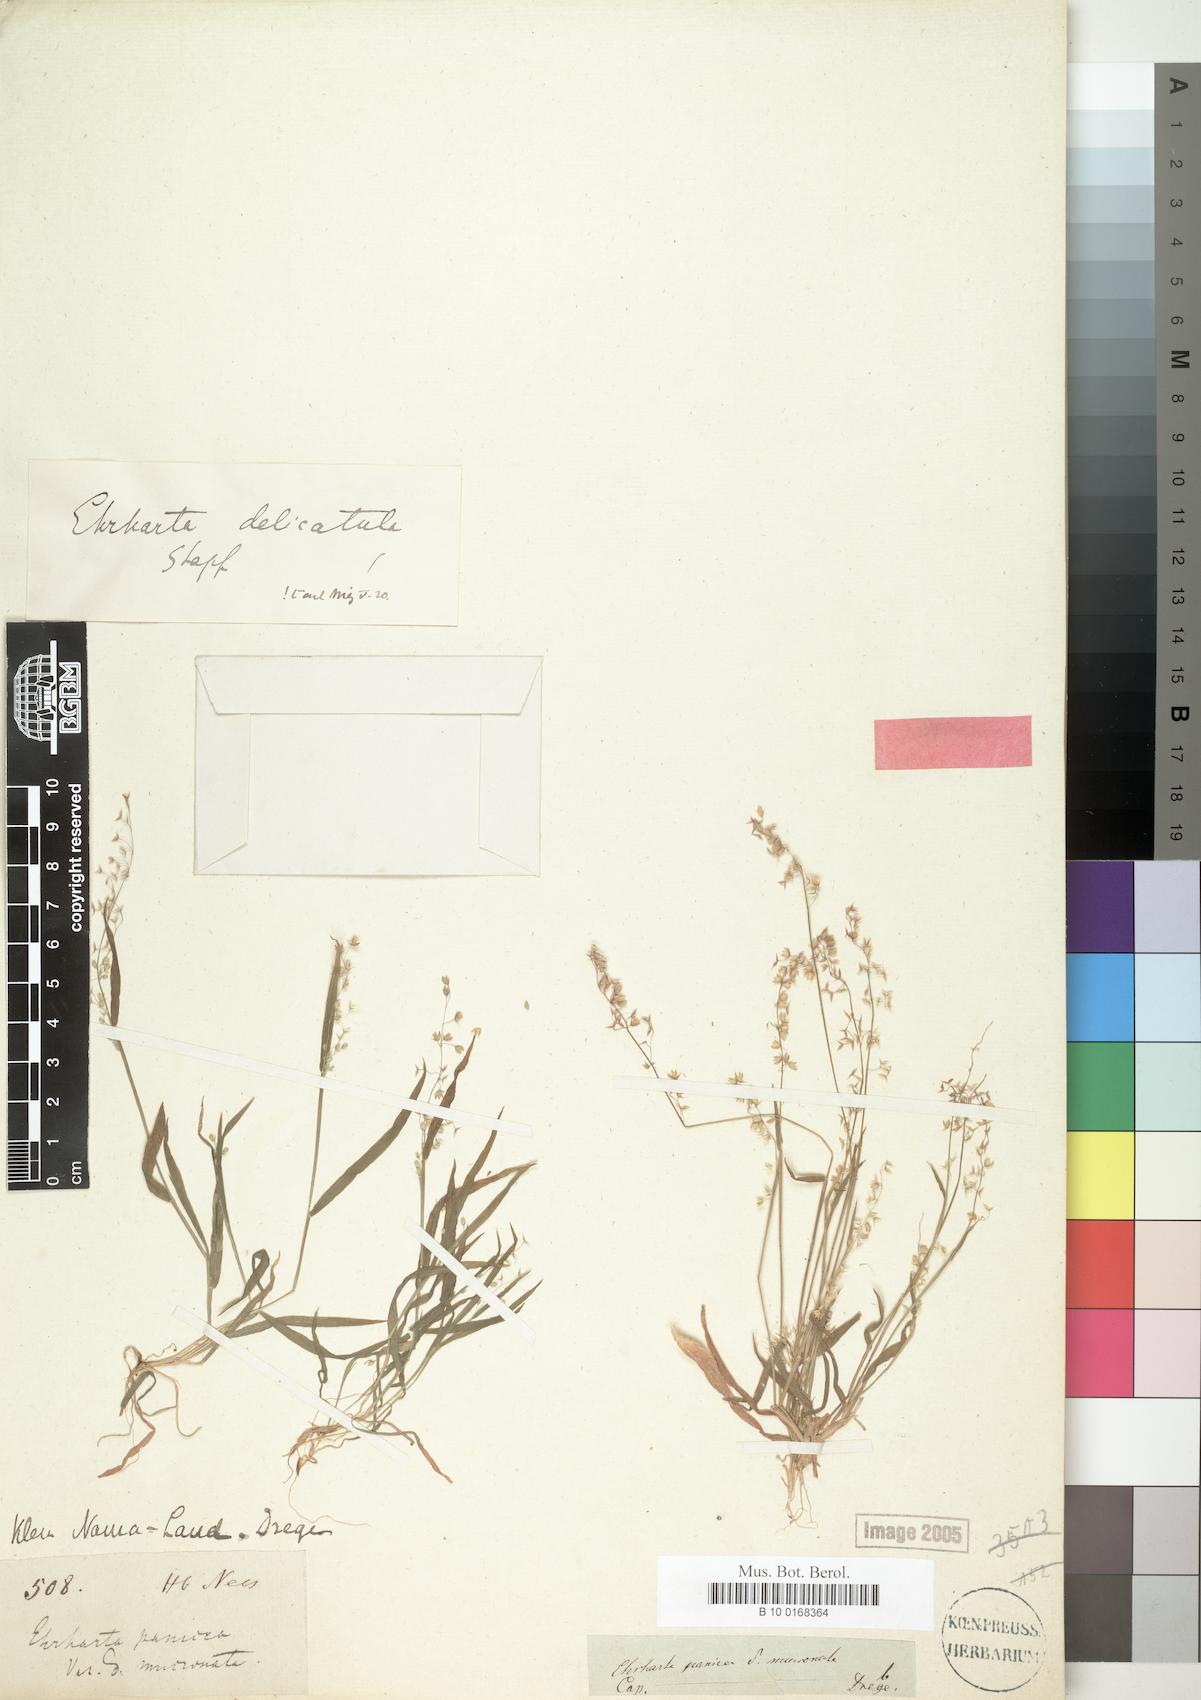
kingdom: Plantae
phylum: Tracheophyta
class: Liliopsida
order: Poales
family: Poaceae
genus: Ehrharta
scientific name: Ehrharta delicatula
